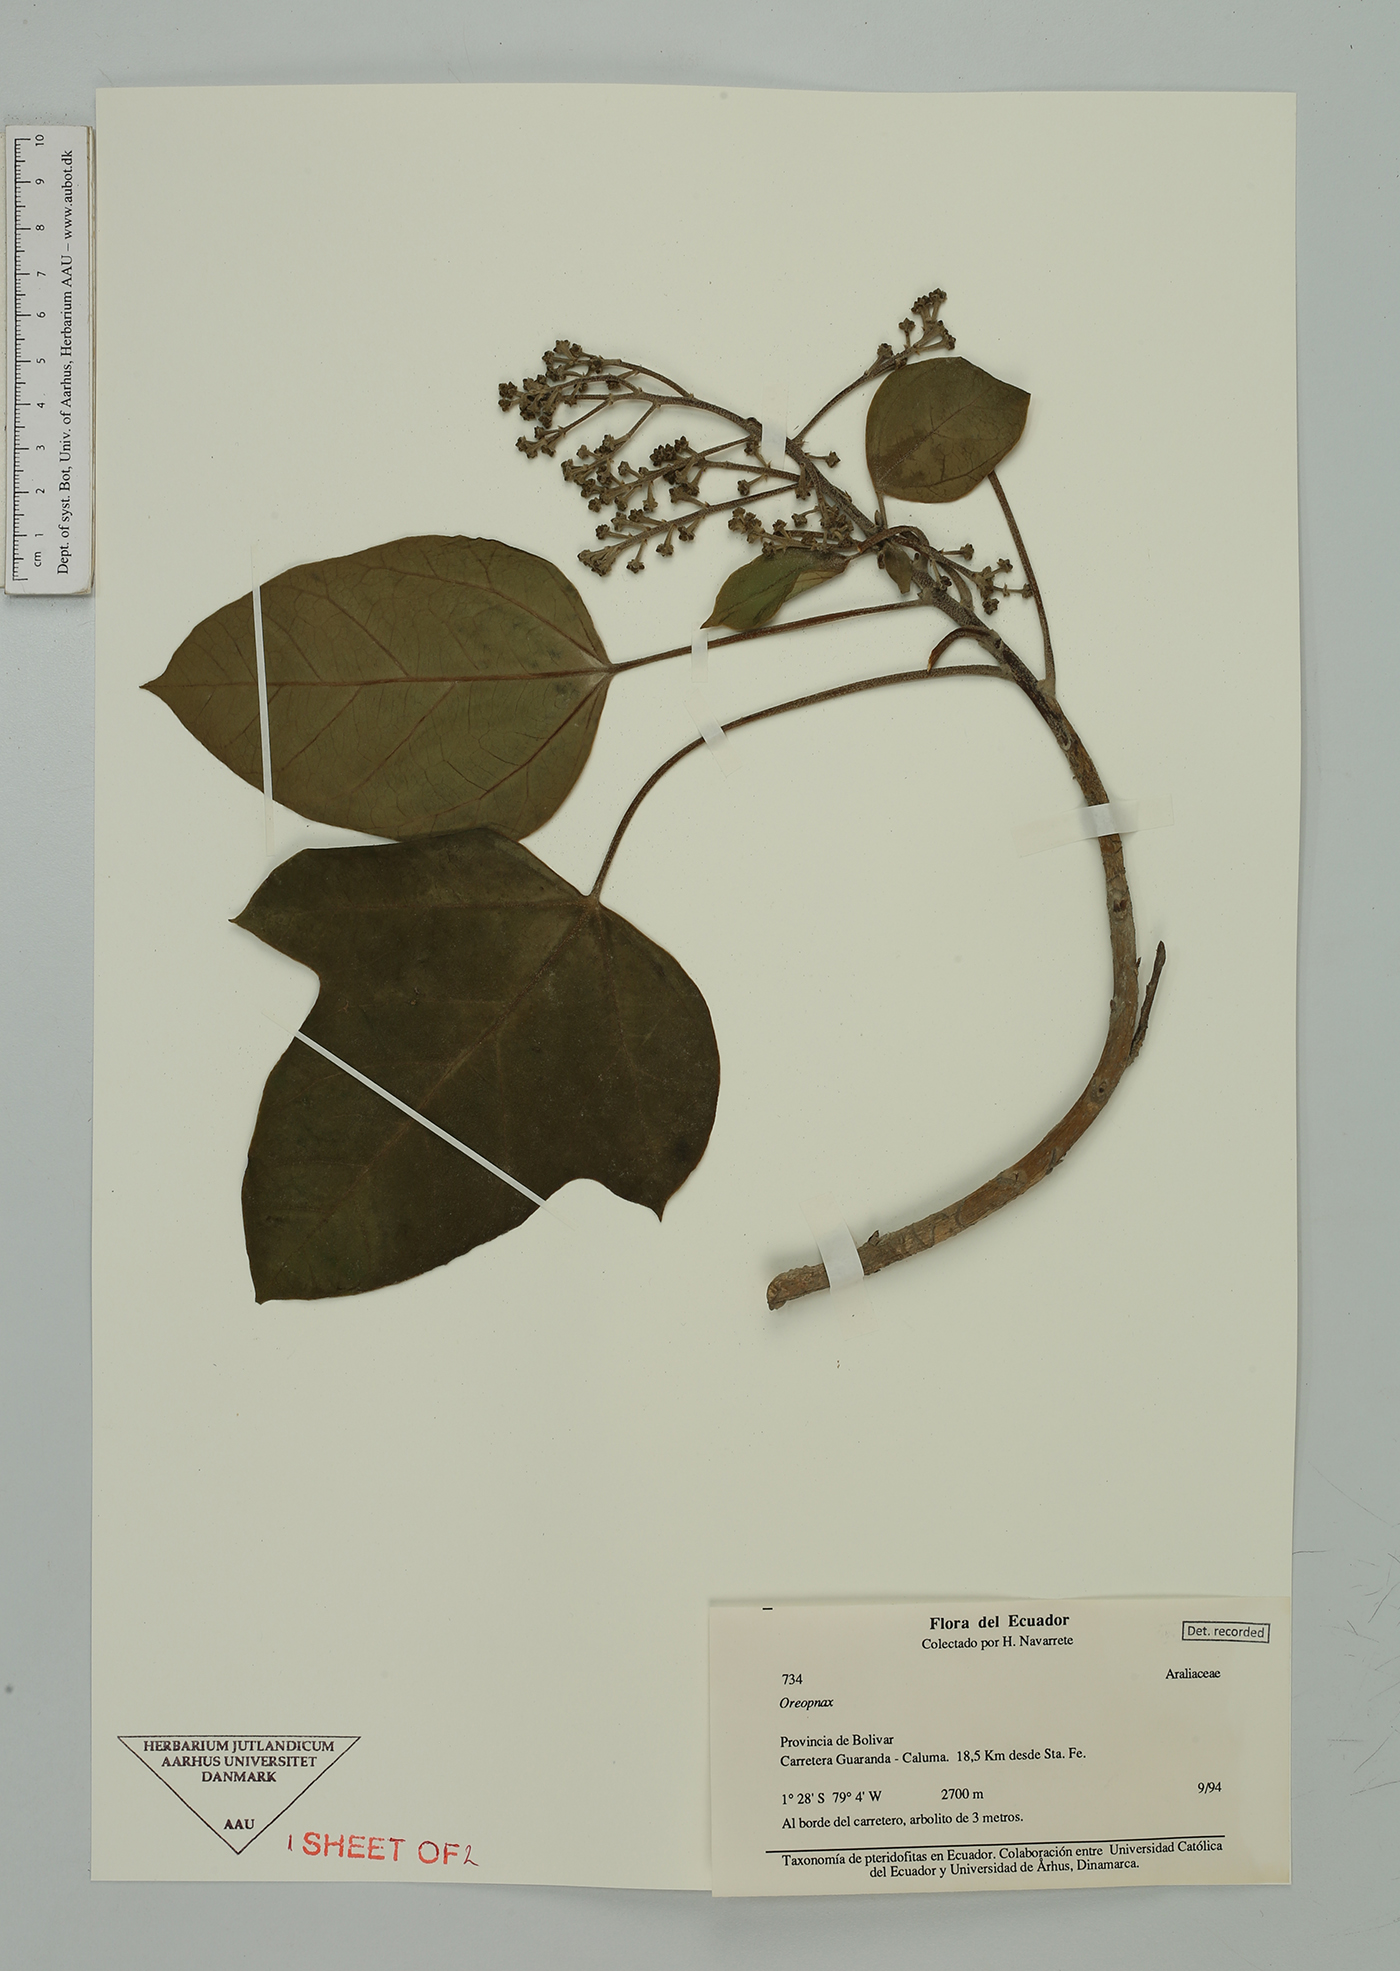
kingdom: Plantae
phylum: Tracheophyta
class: Magnoliopsida
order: Apiales
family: Araliaceae
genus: Oreopanax
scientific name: Oreopanax
